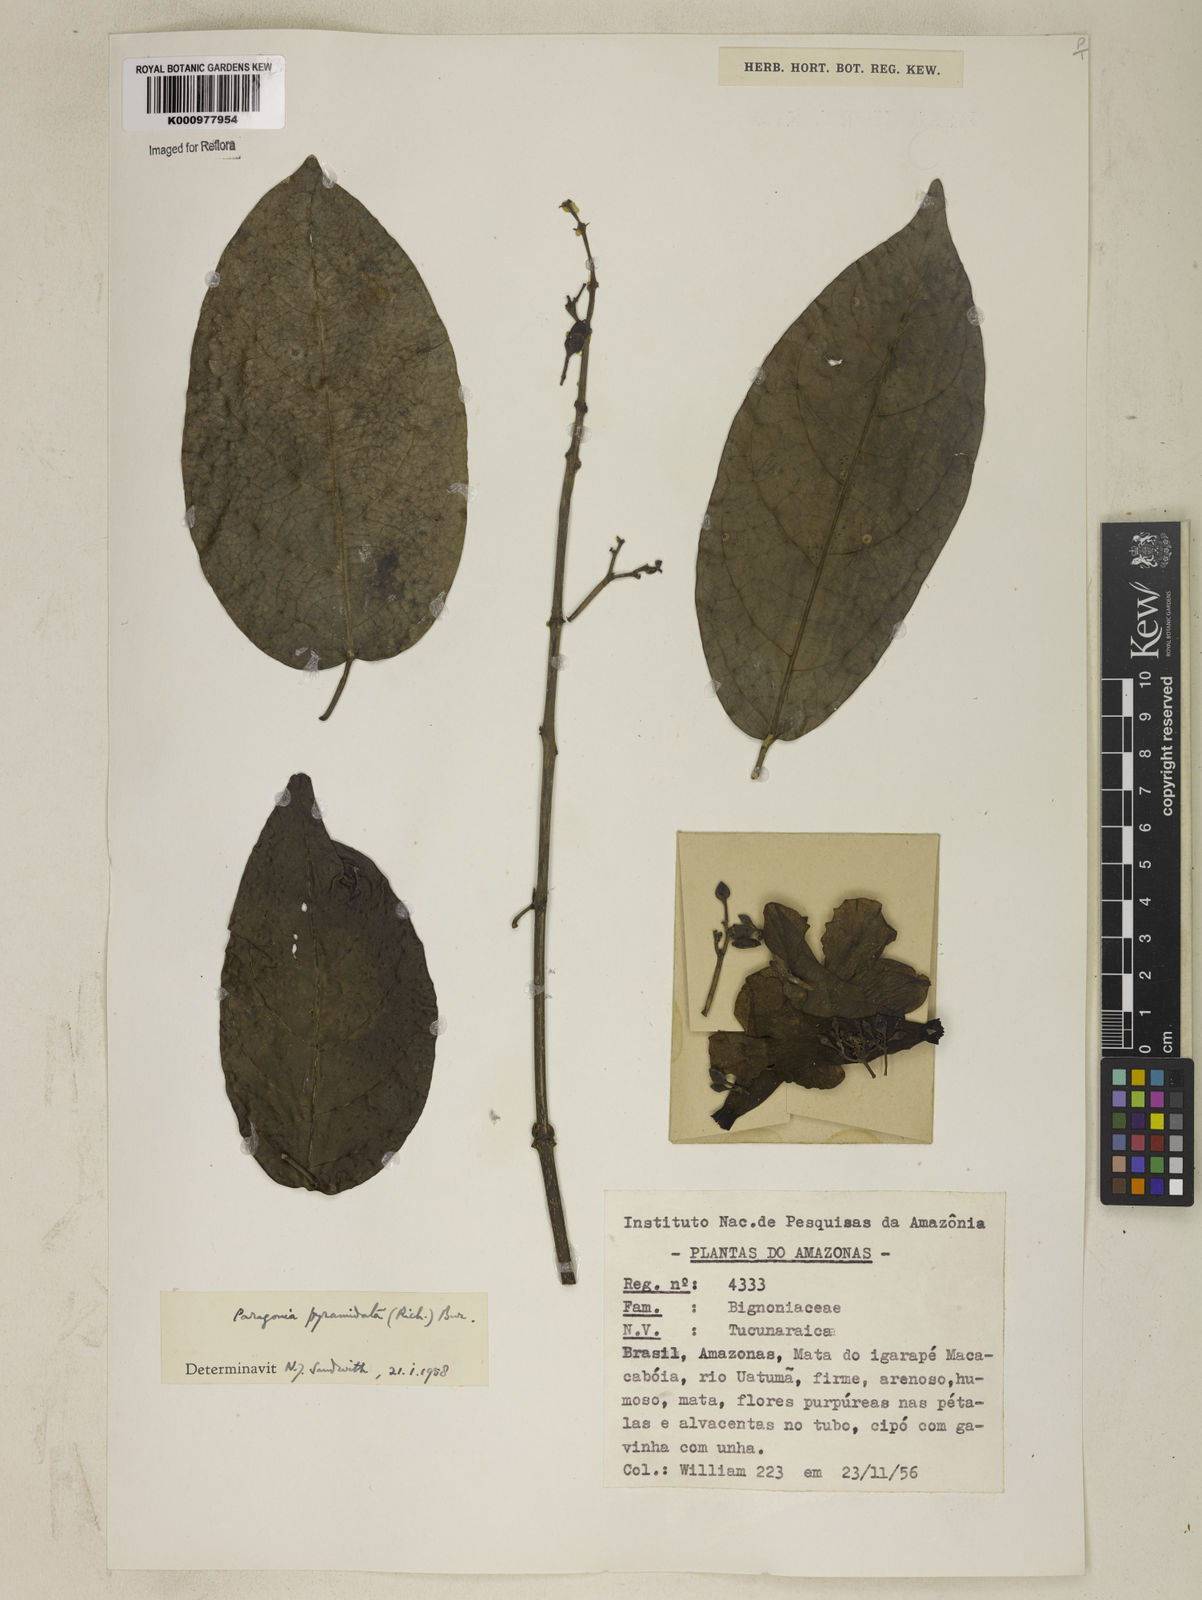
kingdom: Plantae
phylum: Tracheophyta
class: Magnoliopsida
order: Lamiales
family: Bignoniaceae
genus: Tanaecium
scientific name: Tanaecium pyramidatum
